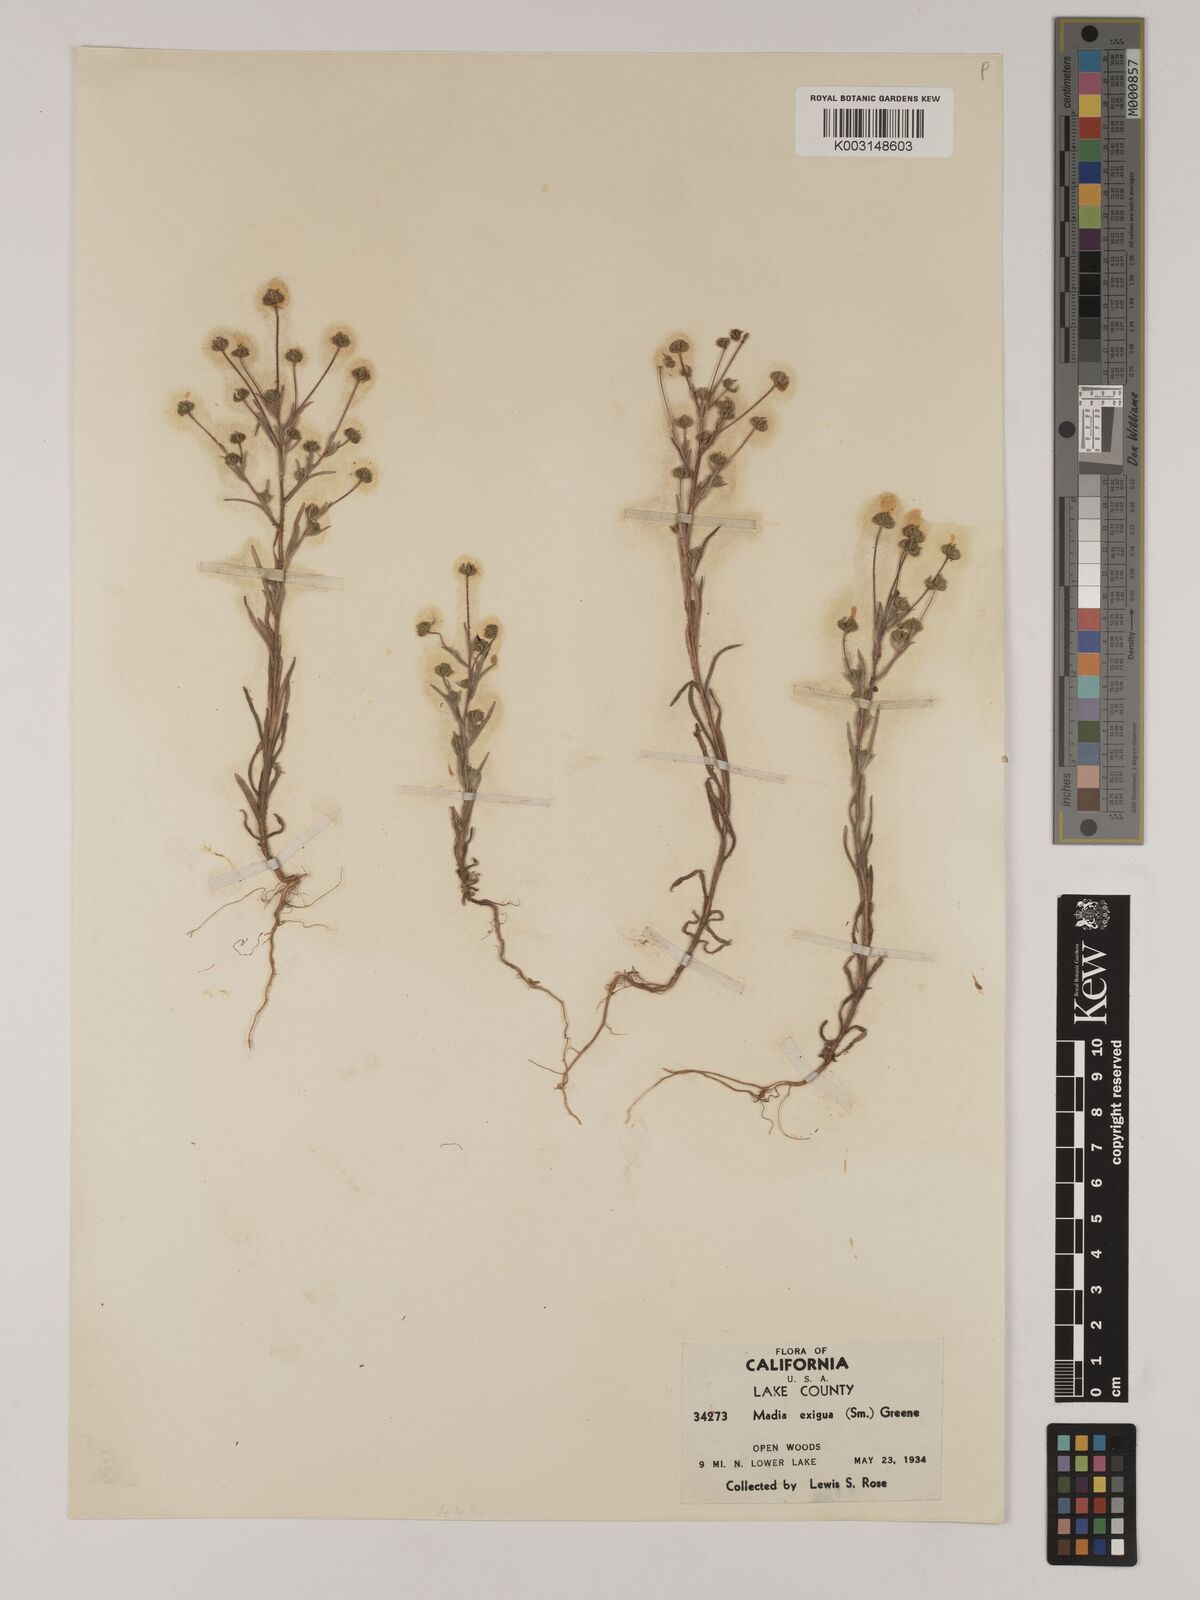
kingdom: Plantae
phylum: Tracheophyta
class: Magnoliopsida
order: Asterales
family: Asteraceae
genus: Madia
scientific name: Madia exigua
